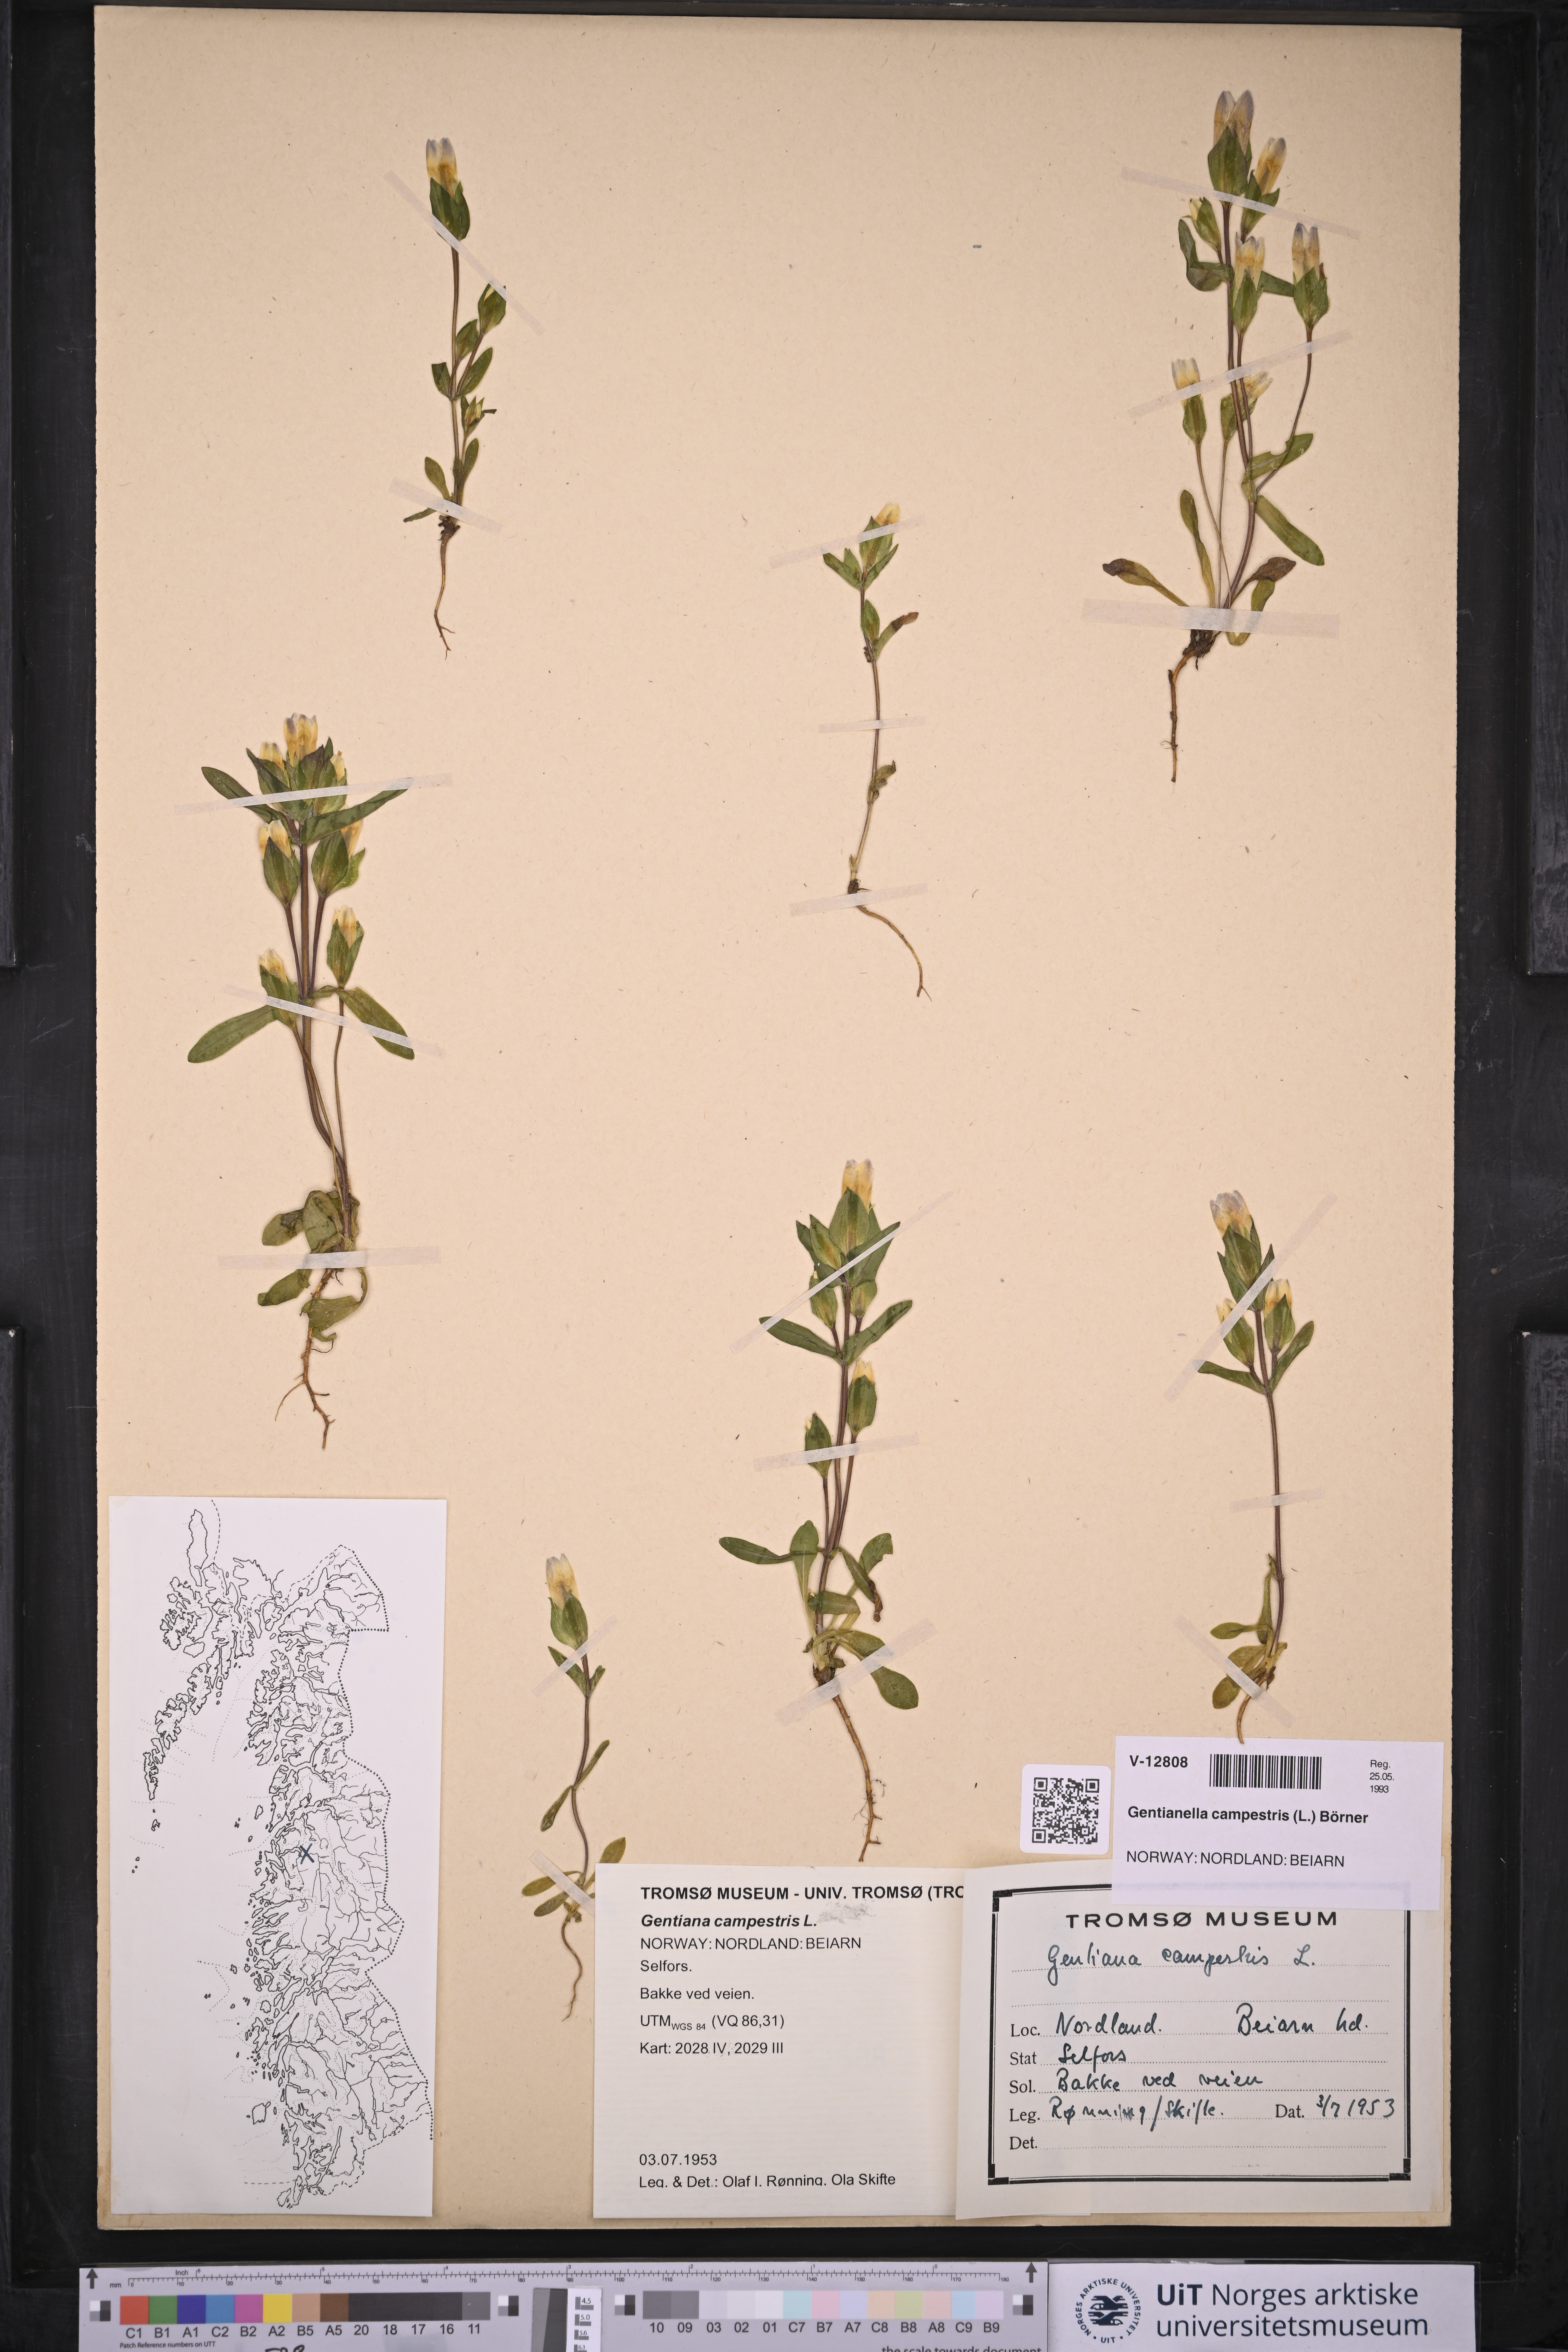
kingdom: Plantae
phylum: Tracheophyta
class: Magnoliopsida
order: Gentianales
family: Gentianaceae
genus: Gentianella
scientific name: Gentianella campestris
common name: Field gentian
